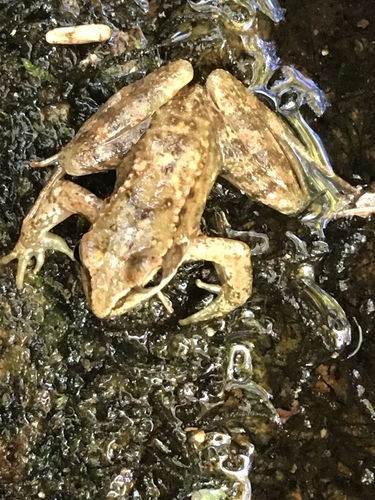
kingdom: Animalia
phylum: Chordata
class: Amphibia
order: Anura
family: Ranidae
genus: Rana
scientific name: Rana iberica
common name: Iberian frog
